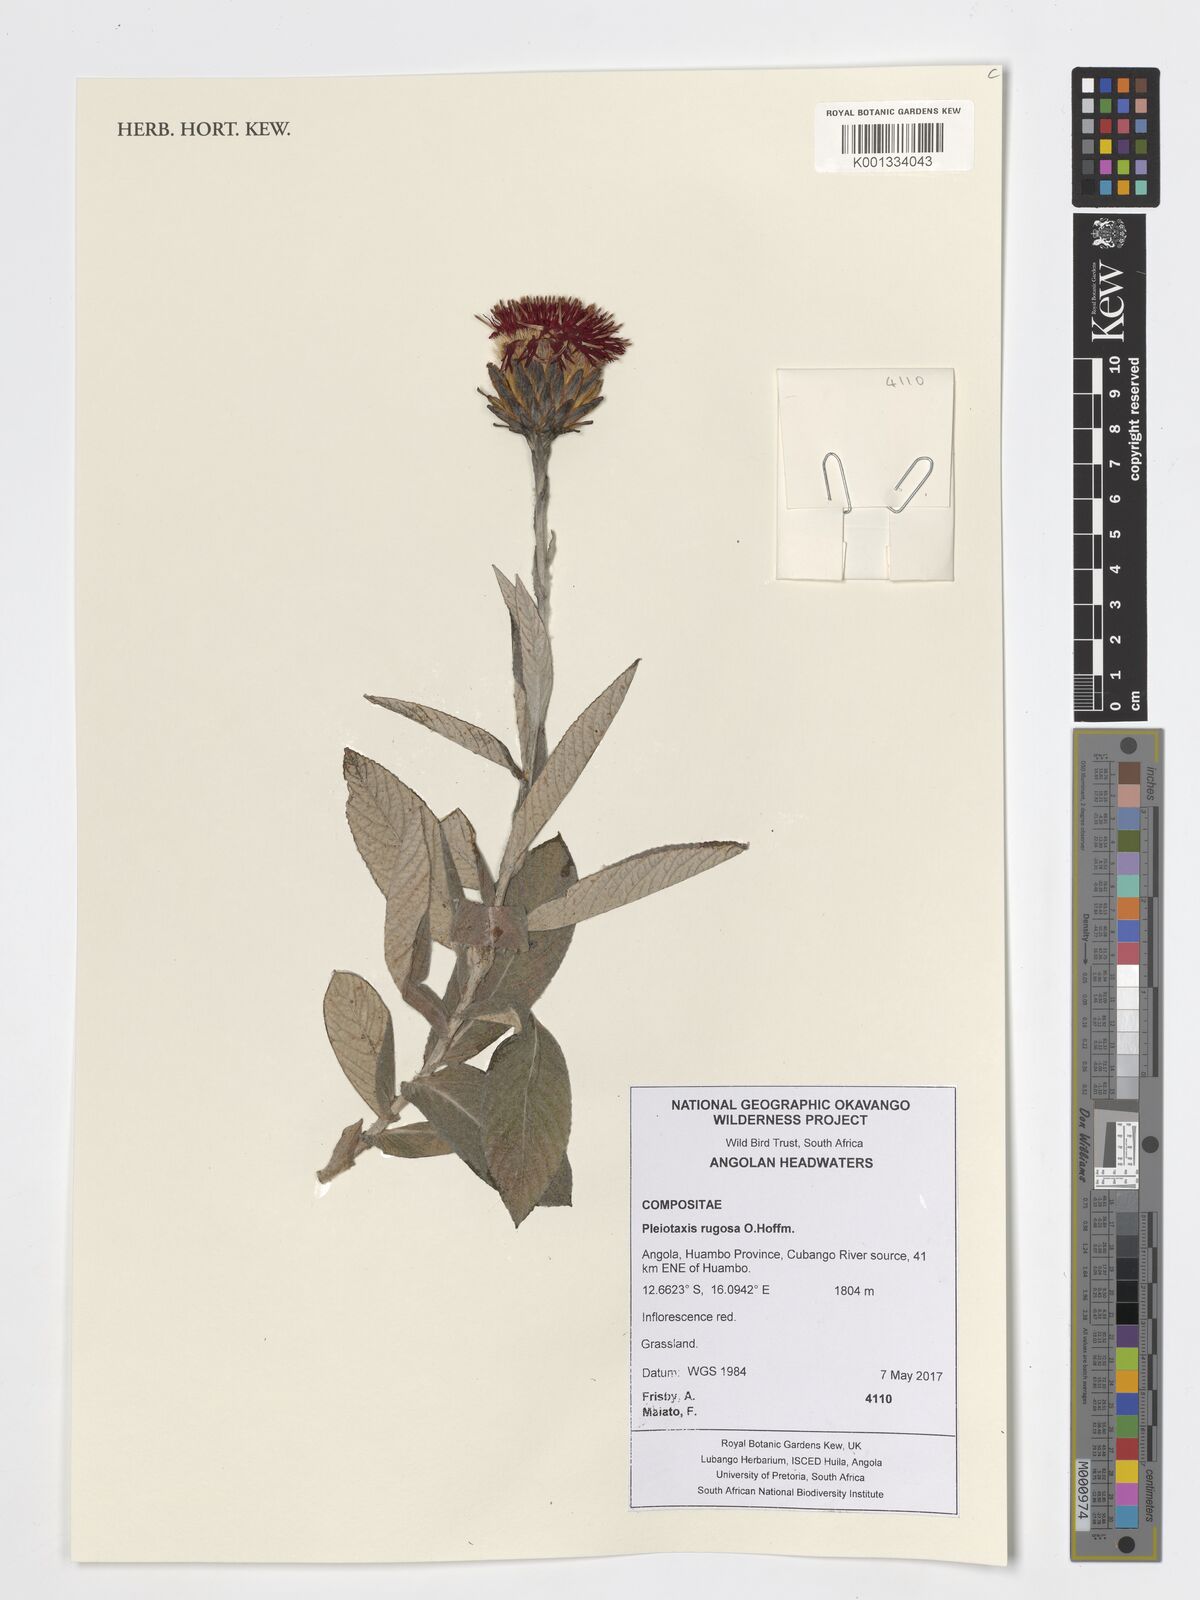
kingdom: Plantae
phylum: Tracheophyta
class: Magnoliopsida
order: Asterales
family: Asteraceae
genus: Pleiotaxis
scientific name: Pleiotaxis rugosa
